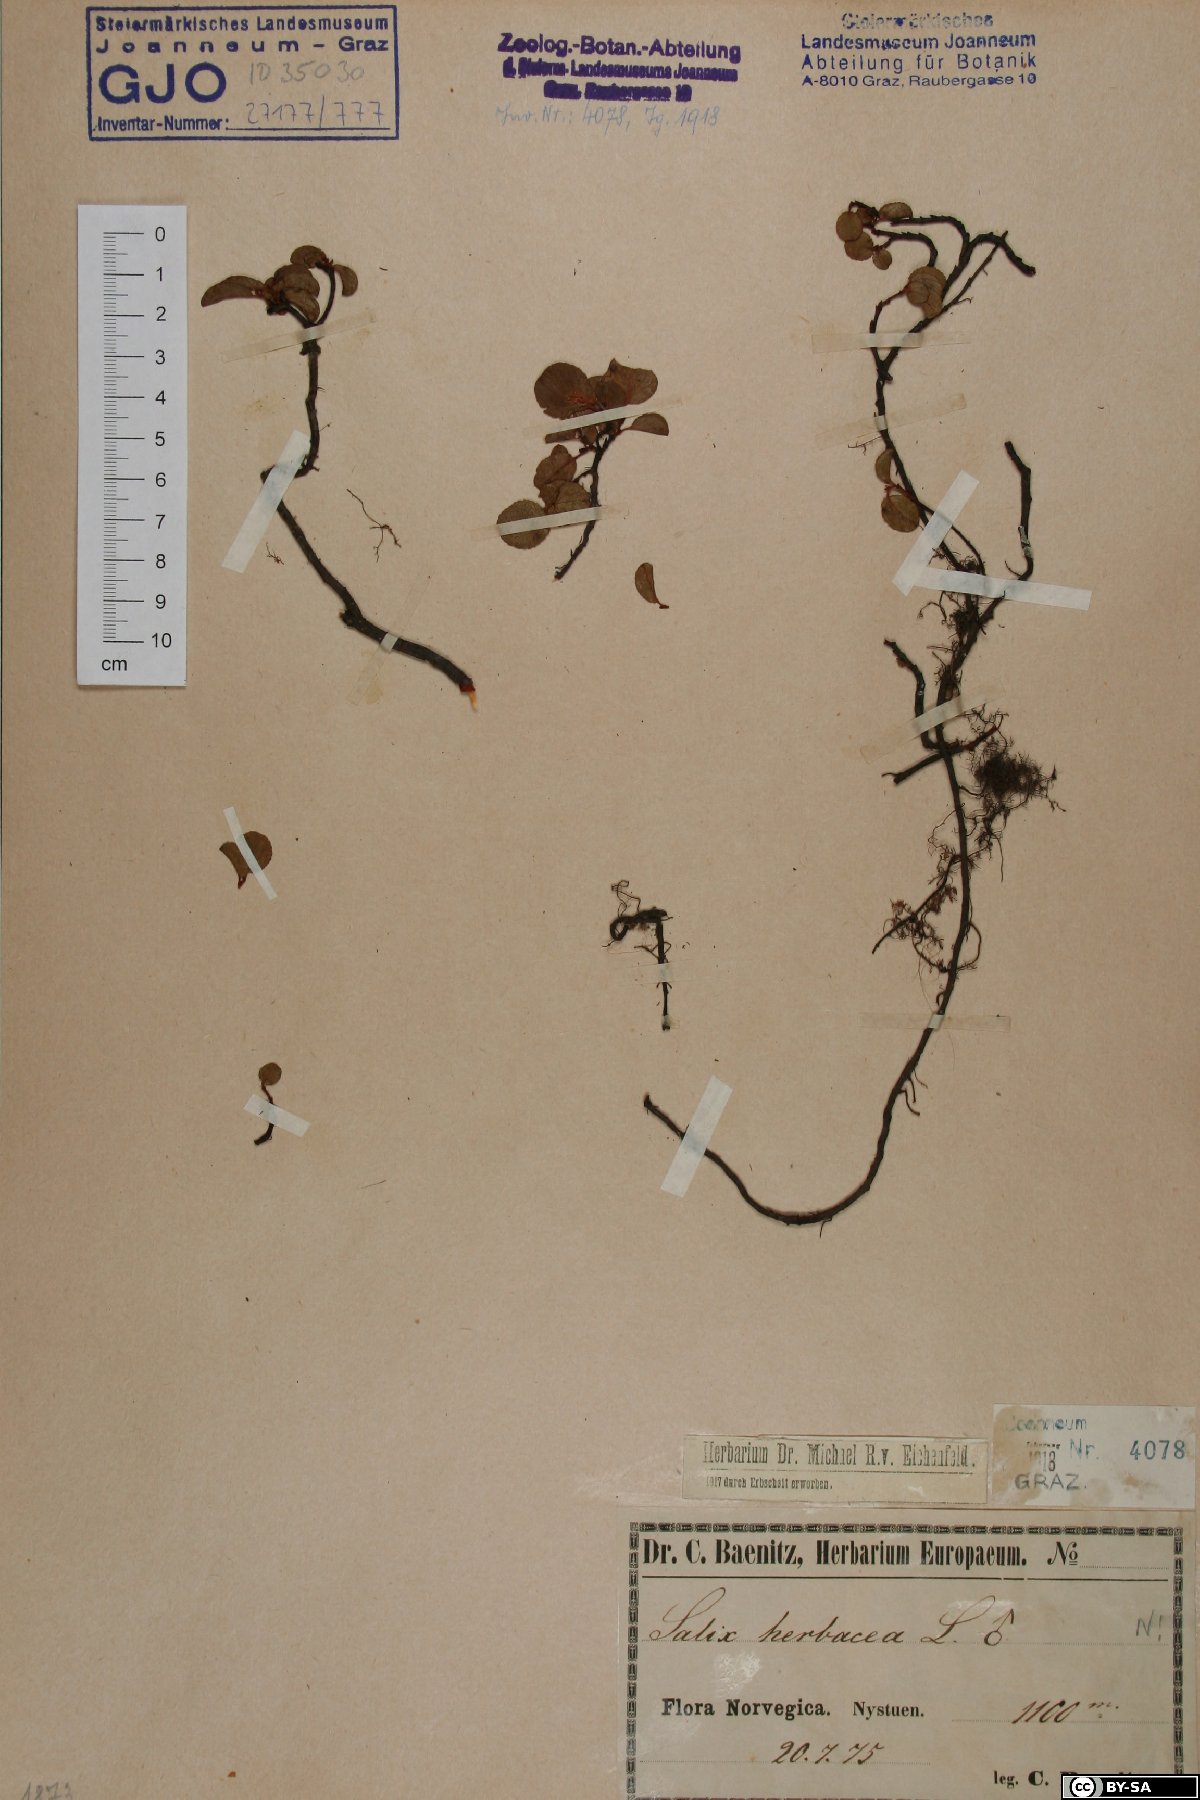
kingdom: Plantae
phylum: Tracheophyta
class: Magnoliopsida
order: Malpighiales
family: Salicaceae
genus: Salix
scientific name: Salix herbacea
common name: Dwarf willow
